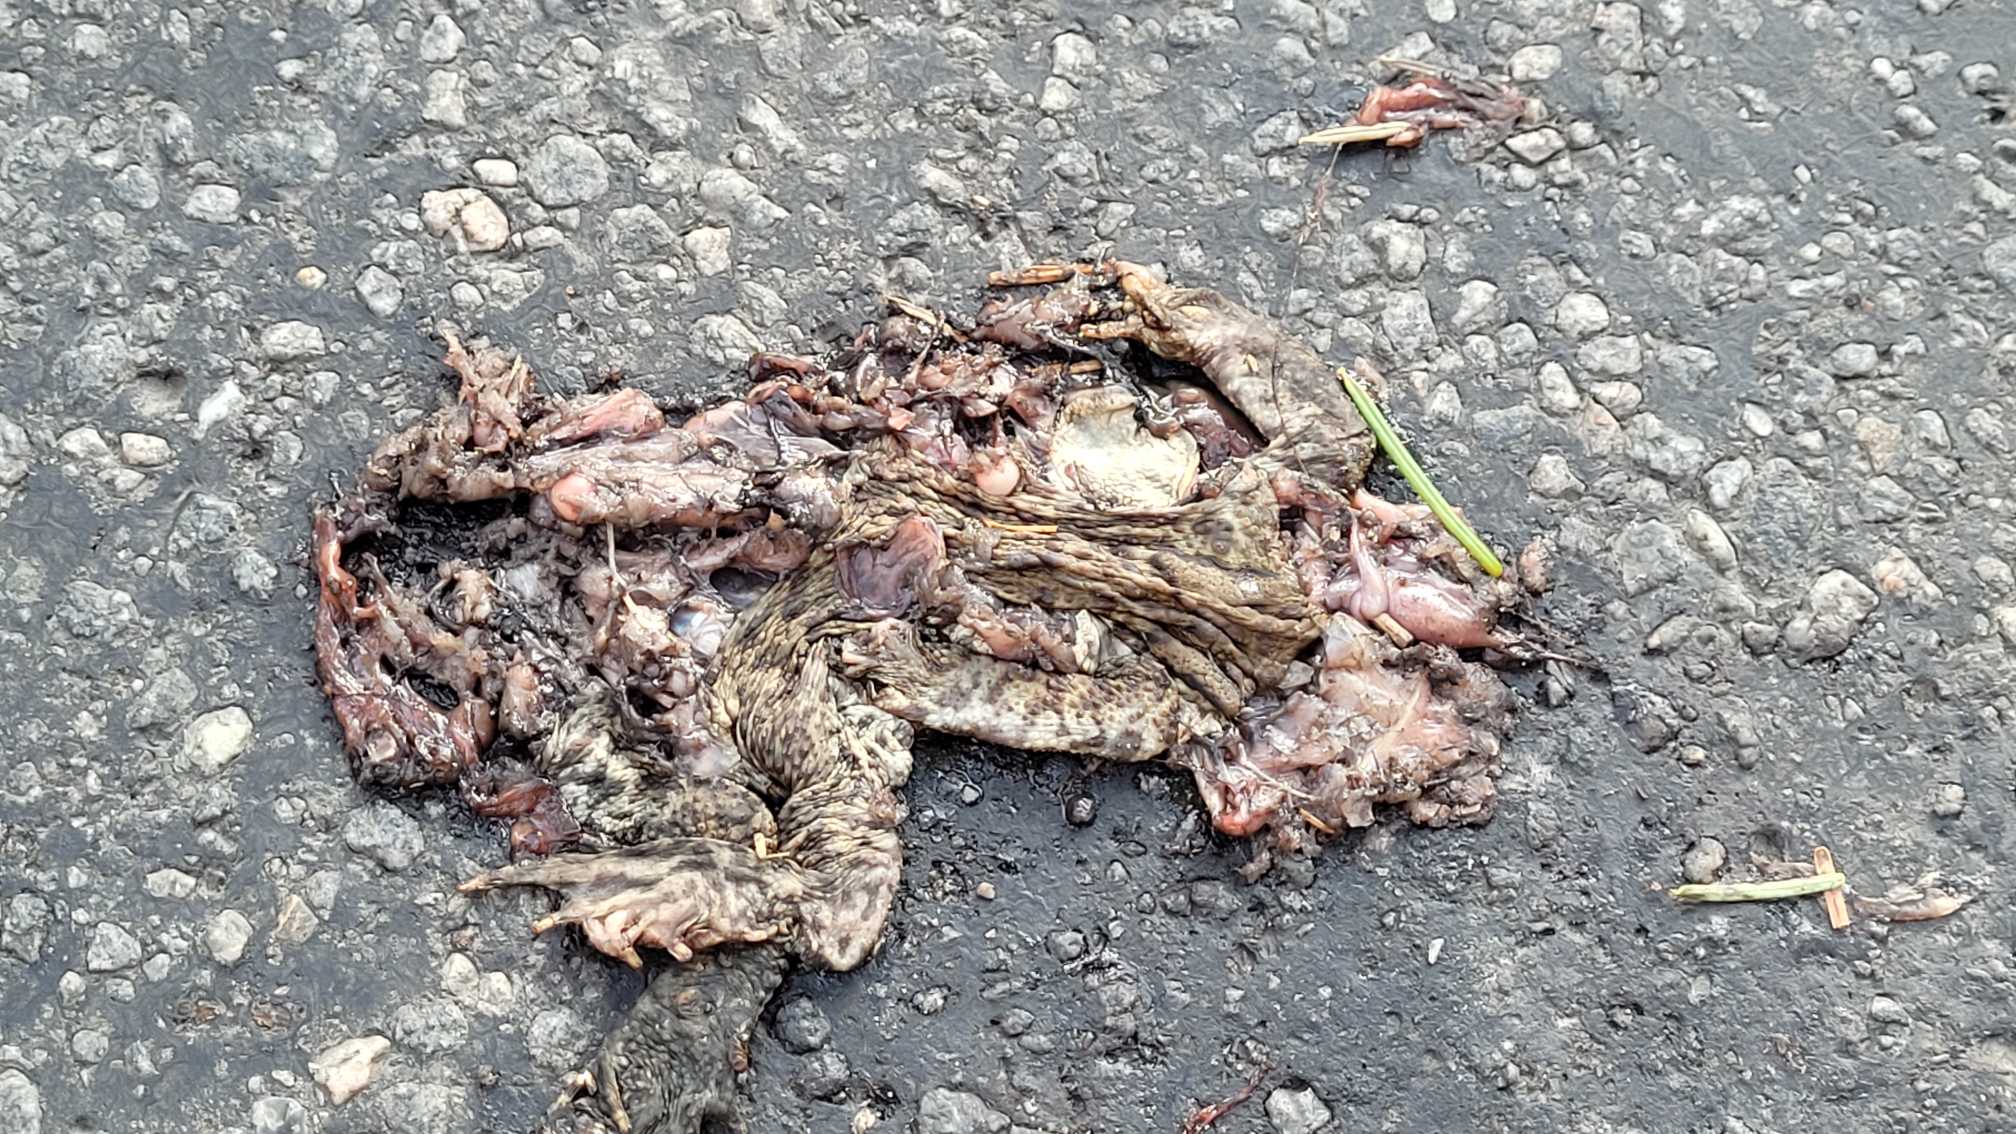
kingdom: Animalia
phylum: Chordata
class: Amphibia
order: Anura
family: Bufonidae
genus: Bufo
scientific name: Bufo bufo
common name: Skrubtudse
